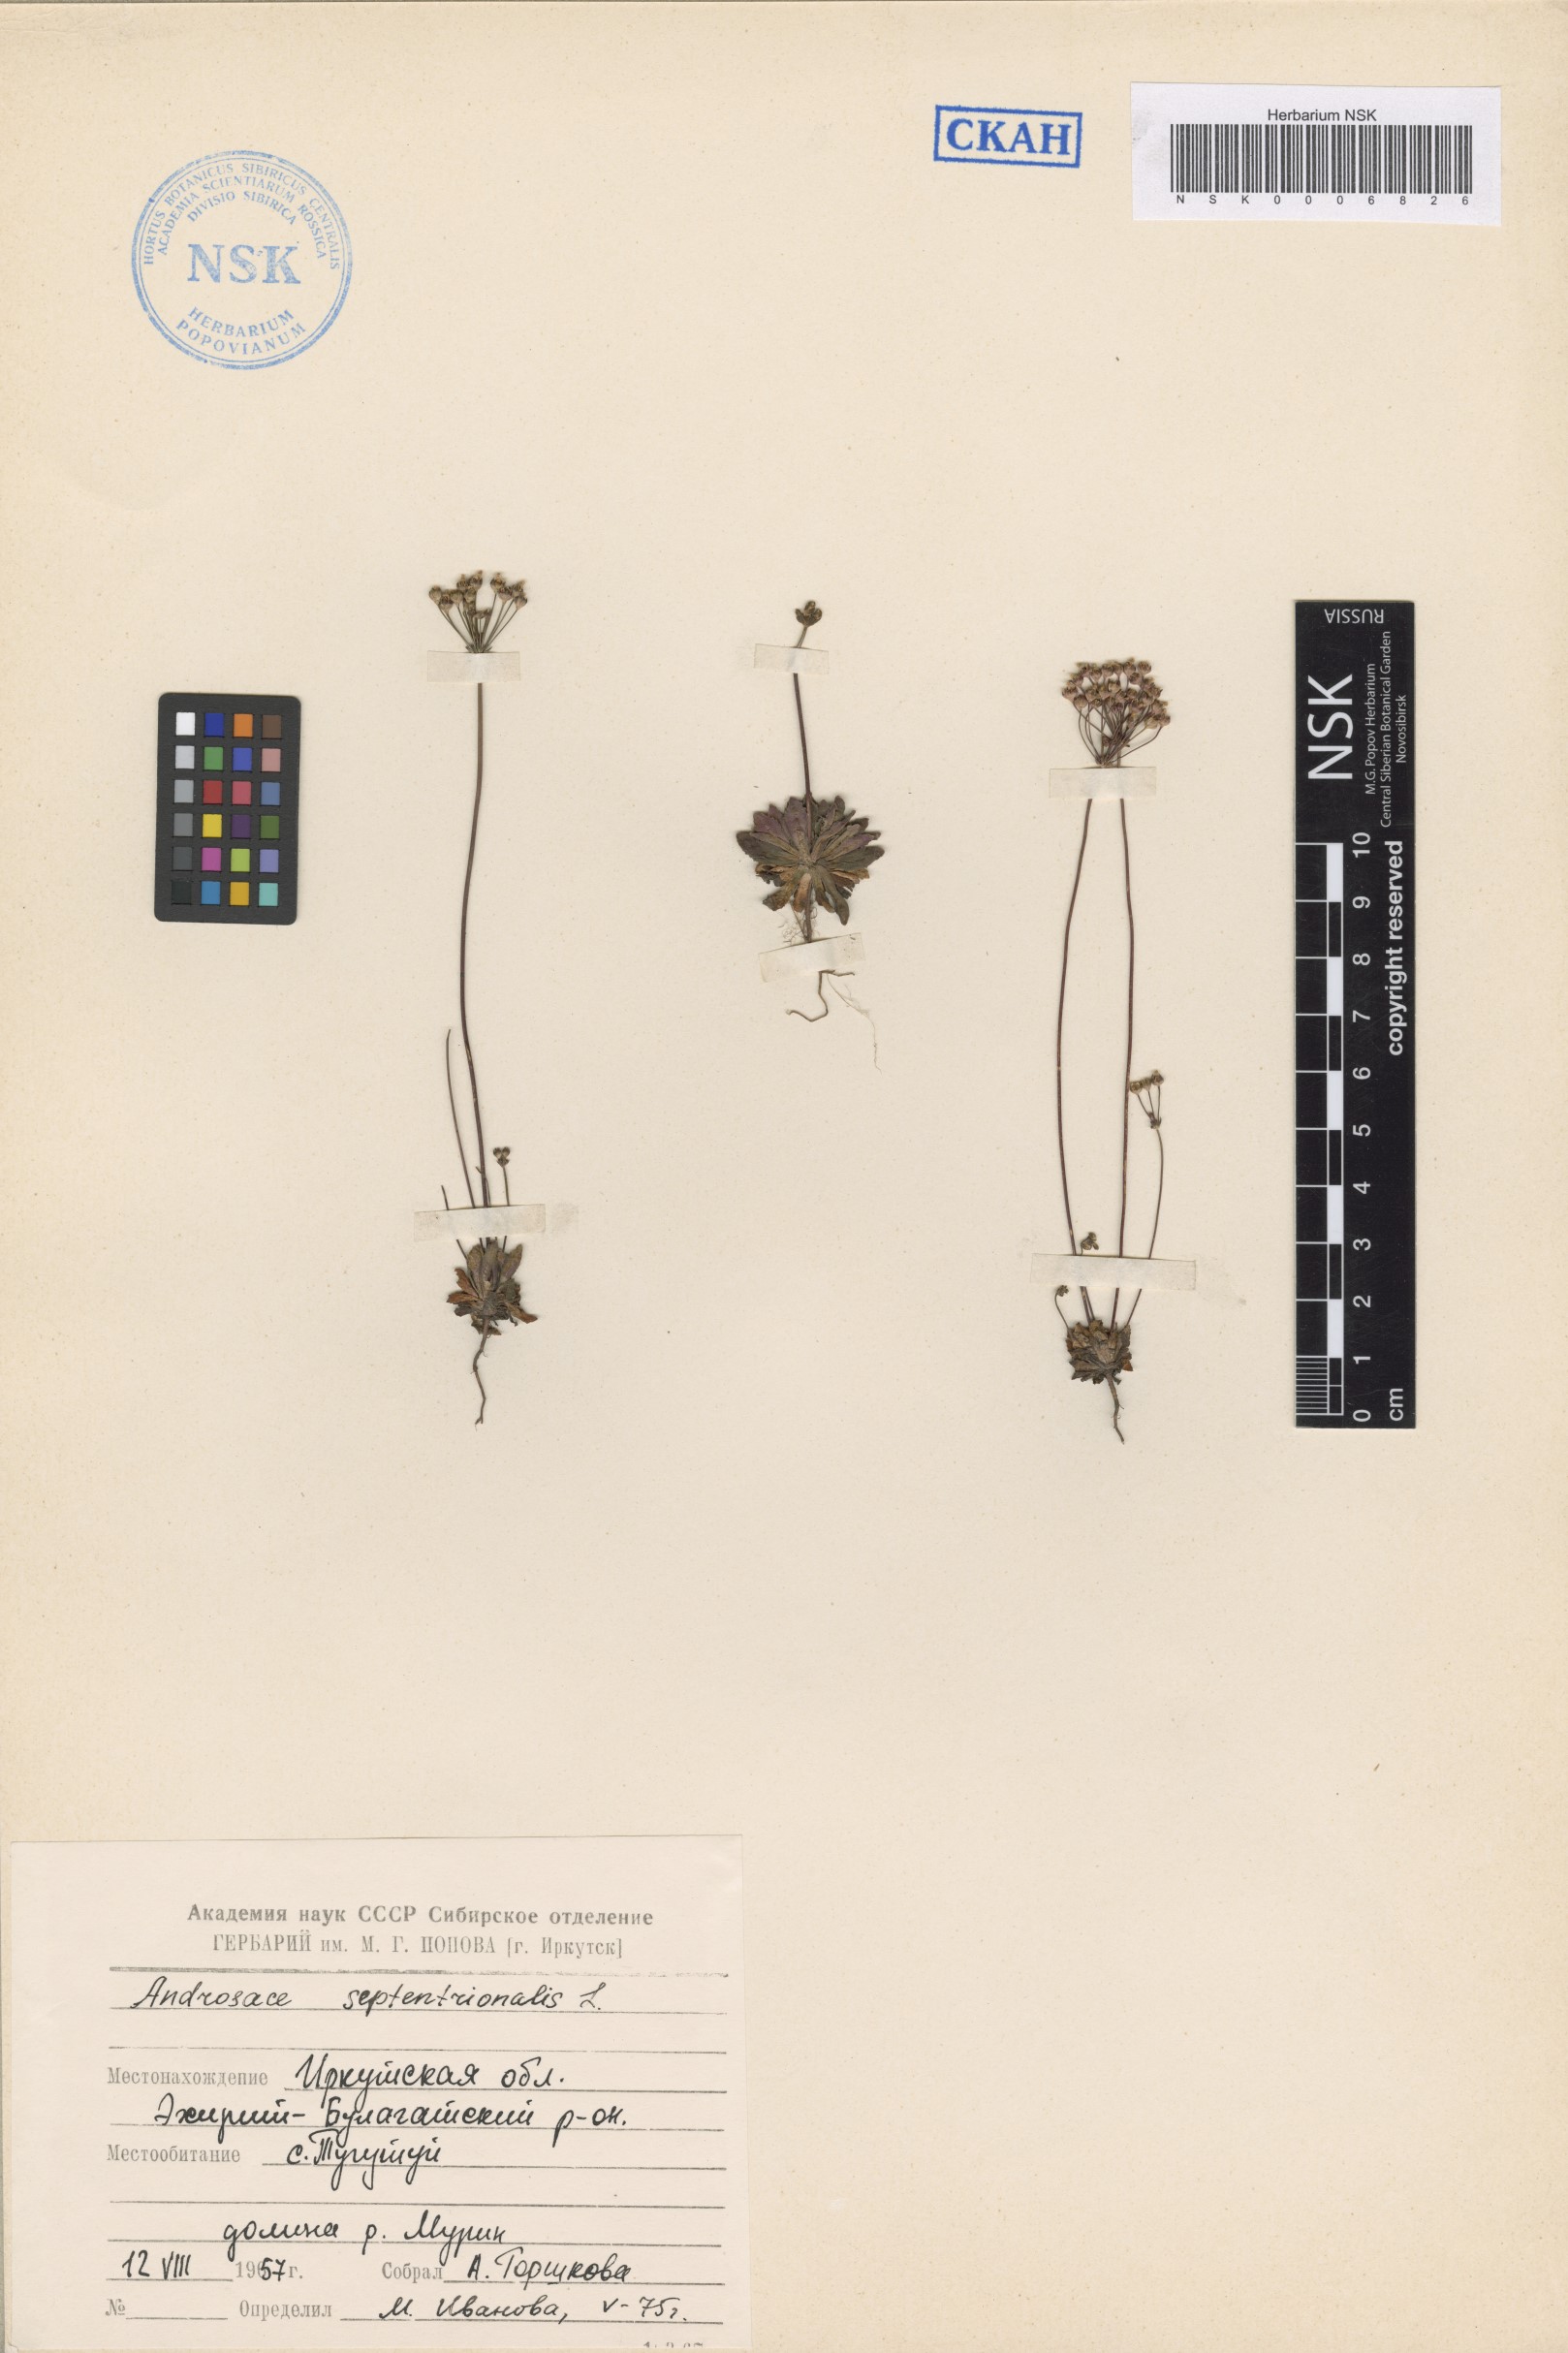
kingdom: Plantae
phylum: Tracheophyta
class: Magnoliopsida
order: Ericales
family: Primulaceae
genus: Androsace
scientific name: Androsace septentrionalis
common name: Hairy northern fairy-candelabra
